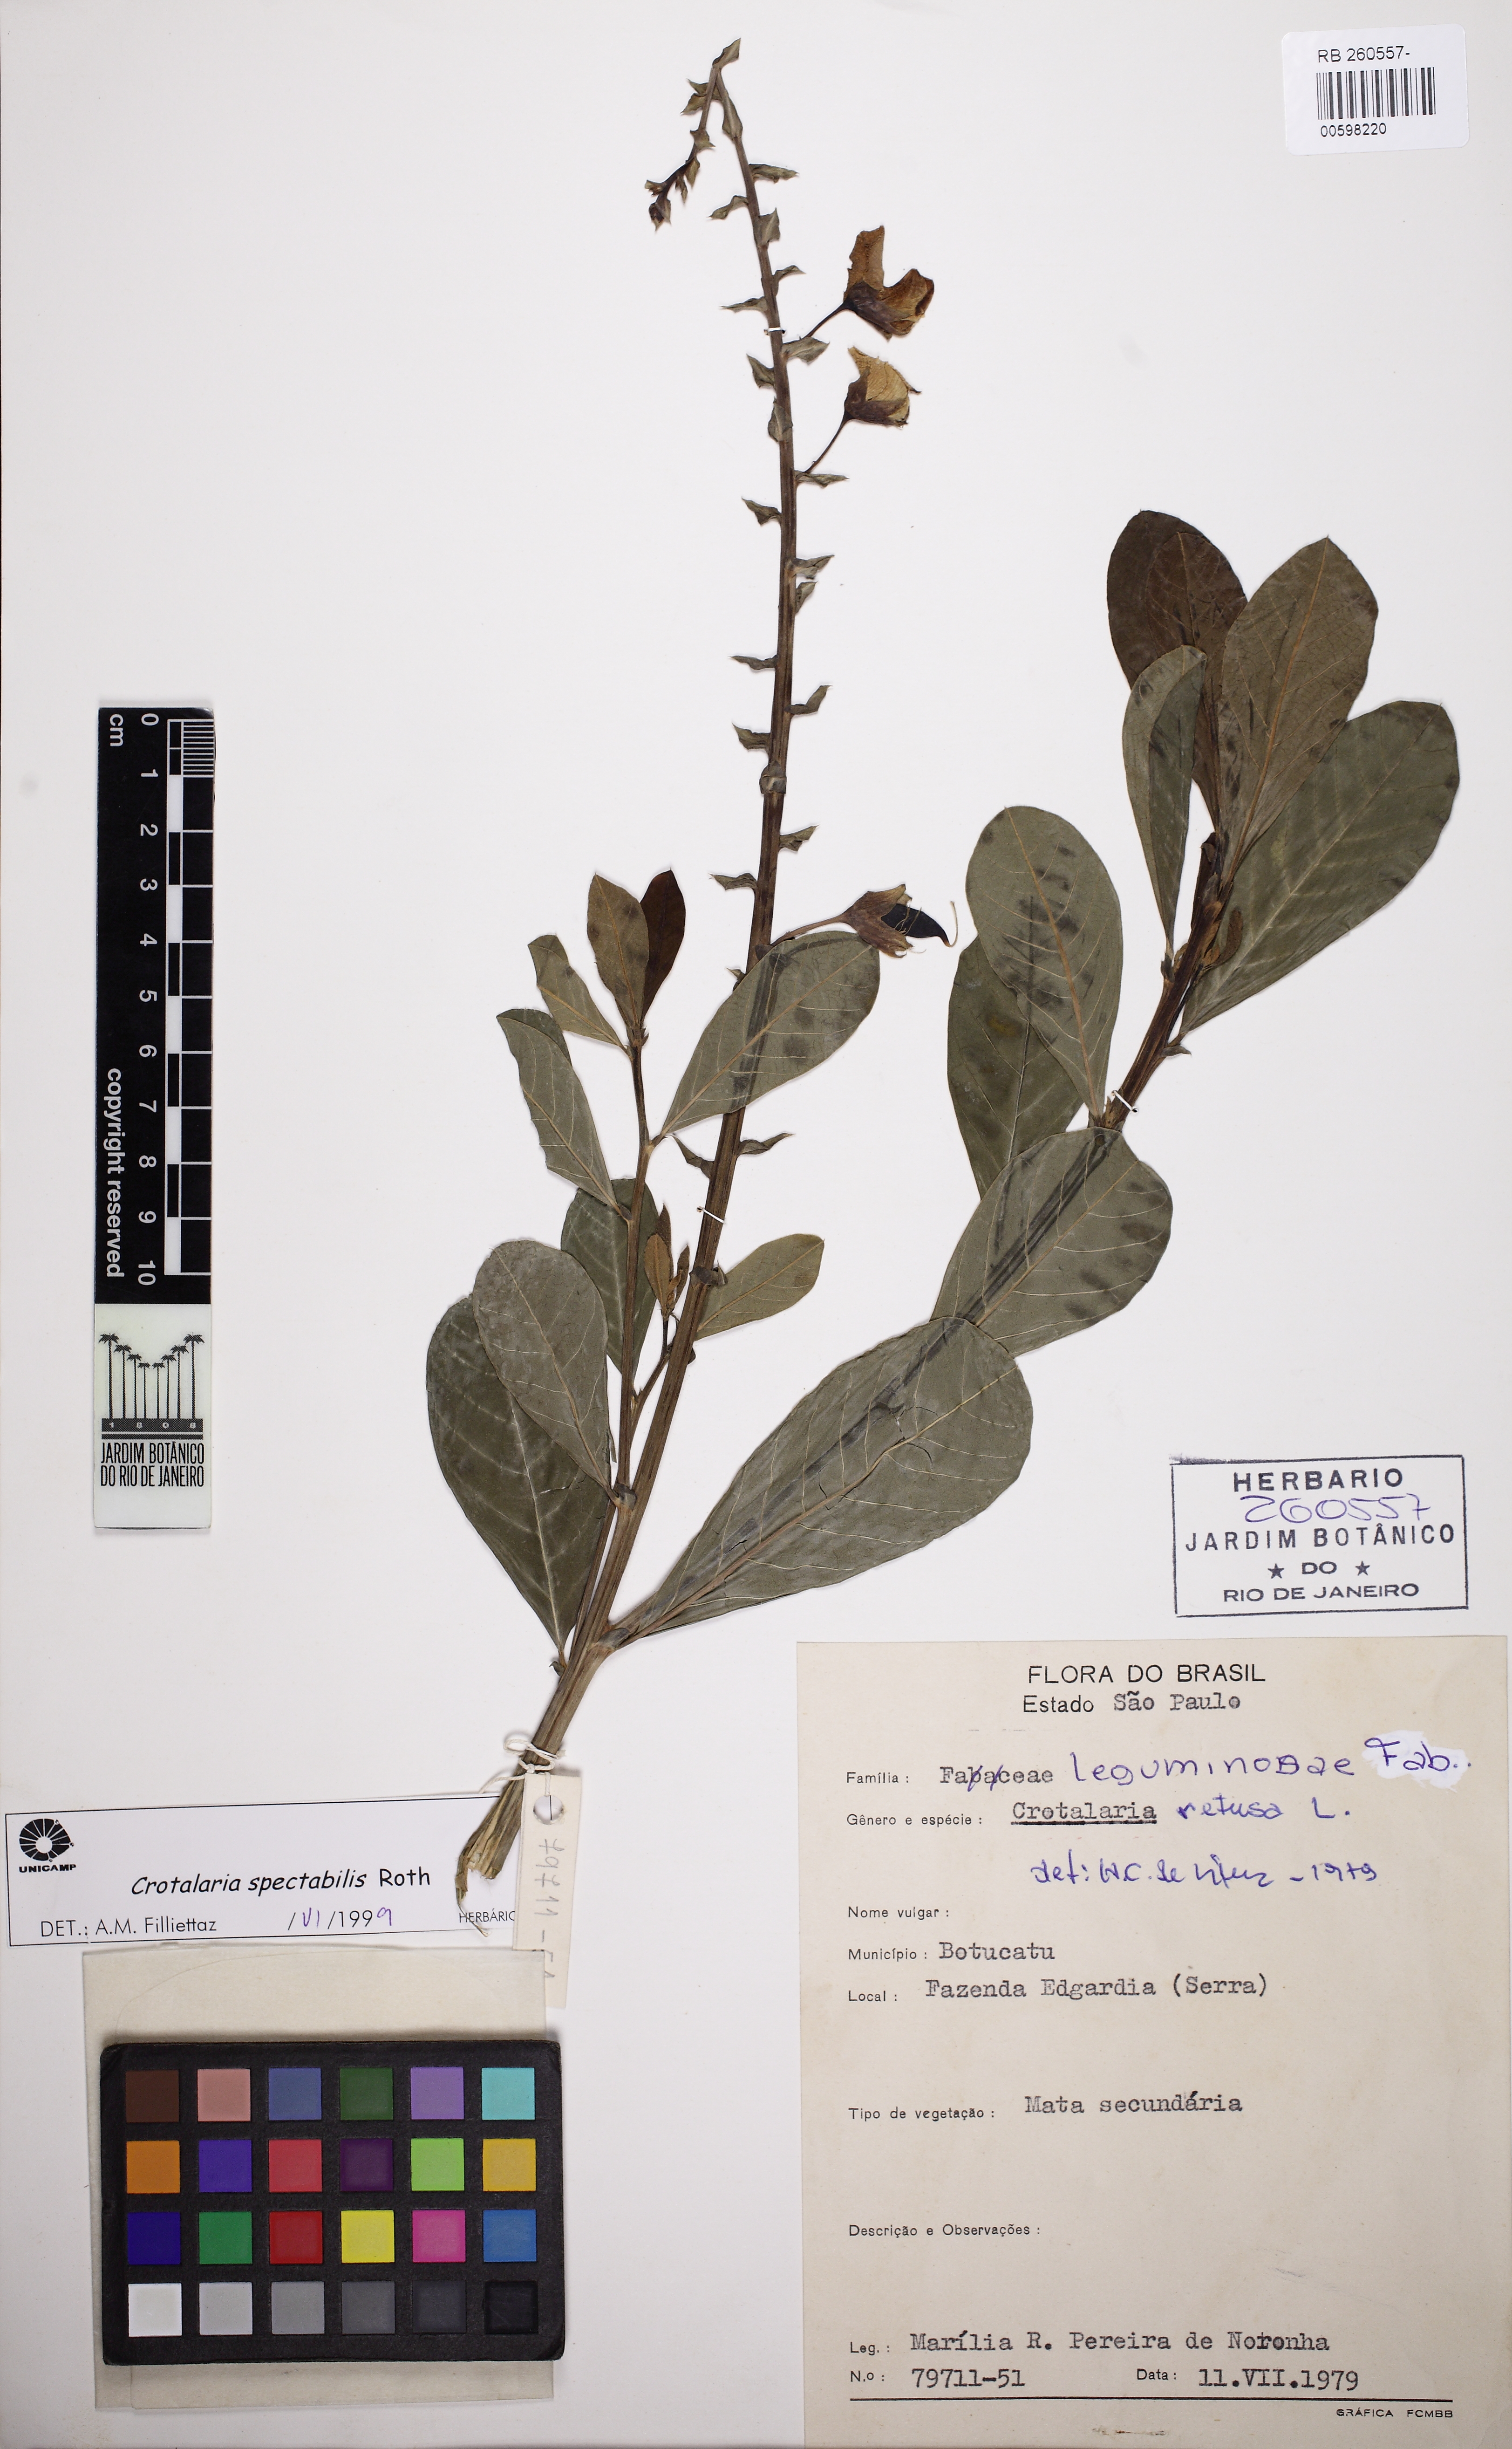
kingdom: Plantae
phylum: Tracheophyta
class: Magnoliopsida
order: Fabales
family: Fabaceae
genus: Crotalaria
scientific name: Crotalaria spectabilis
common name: Showy rattlebox
